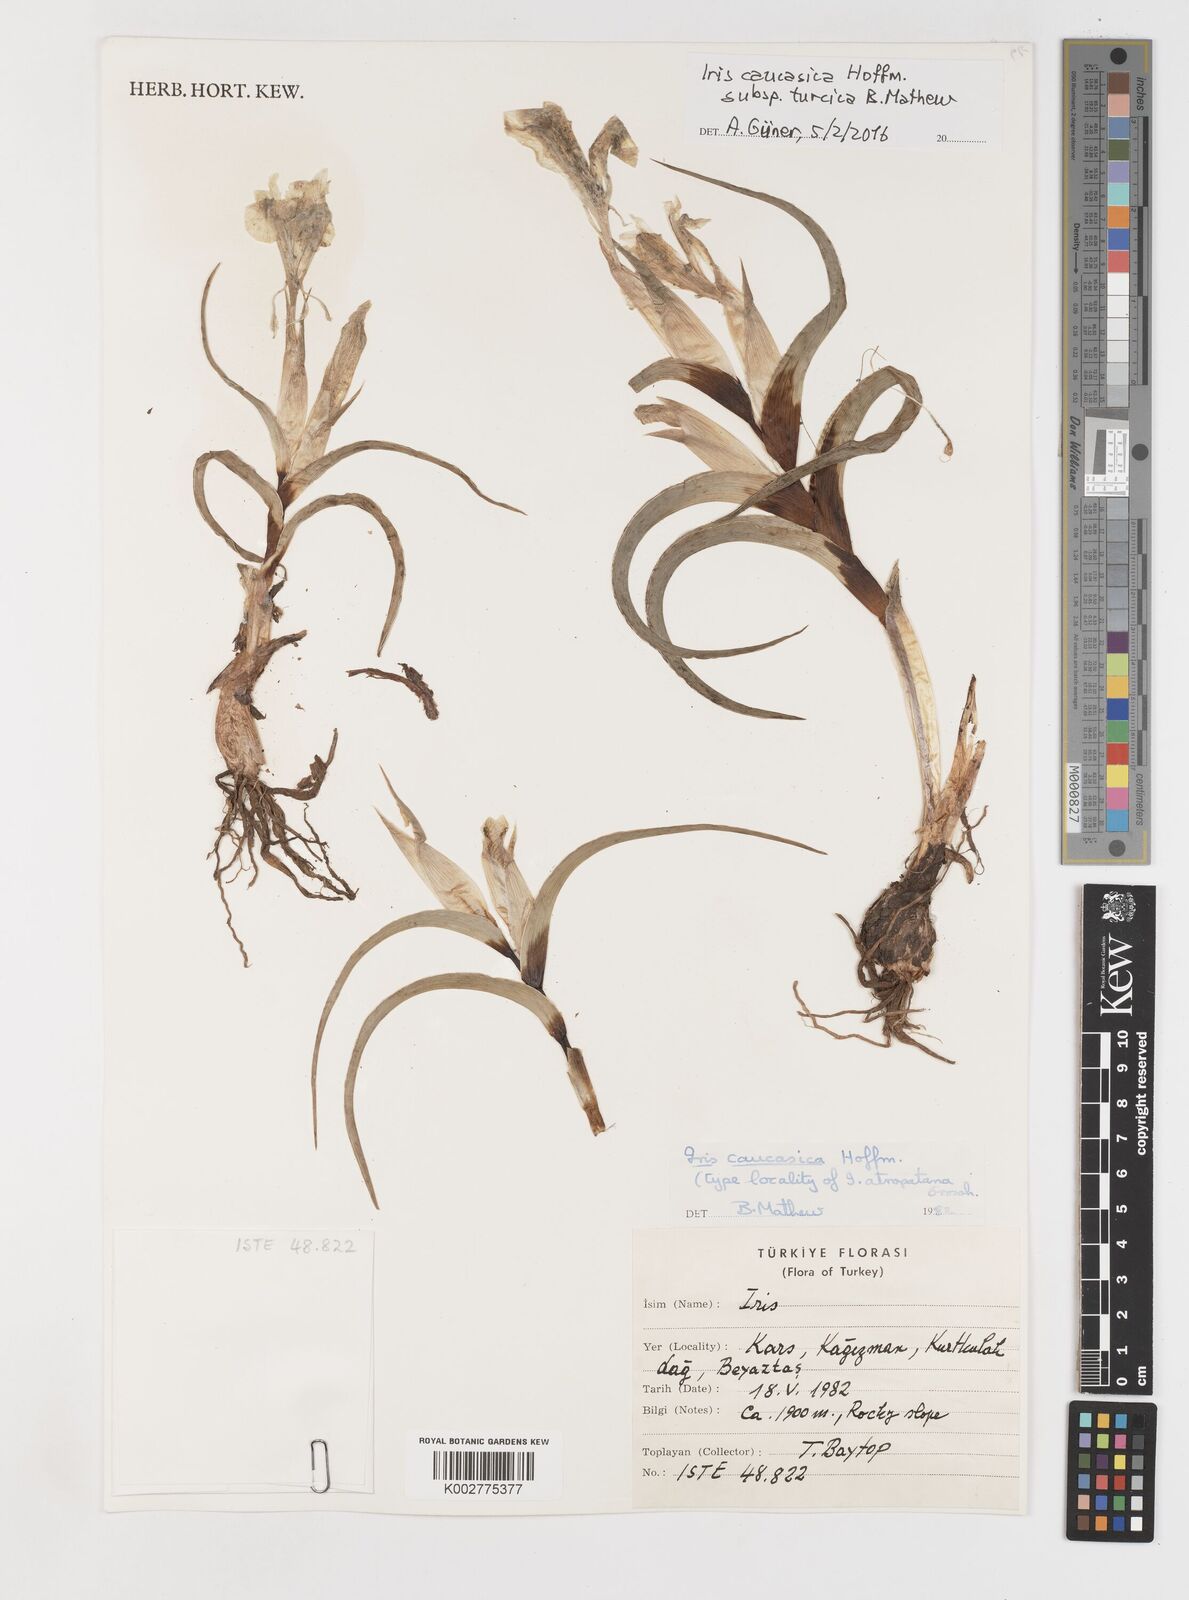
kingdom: Plantae
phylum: Tracheophyta
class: Liliopsida
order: Asparagales
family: Iridaceae
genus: Iris
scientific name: Iris caucasica
